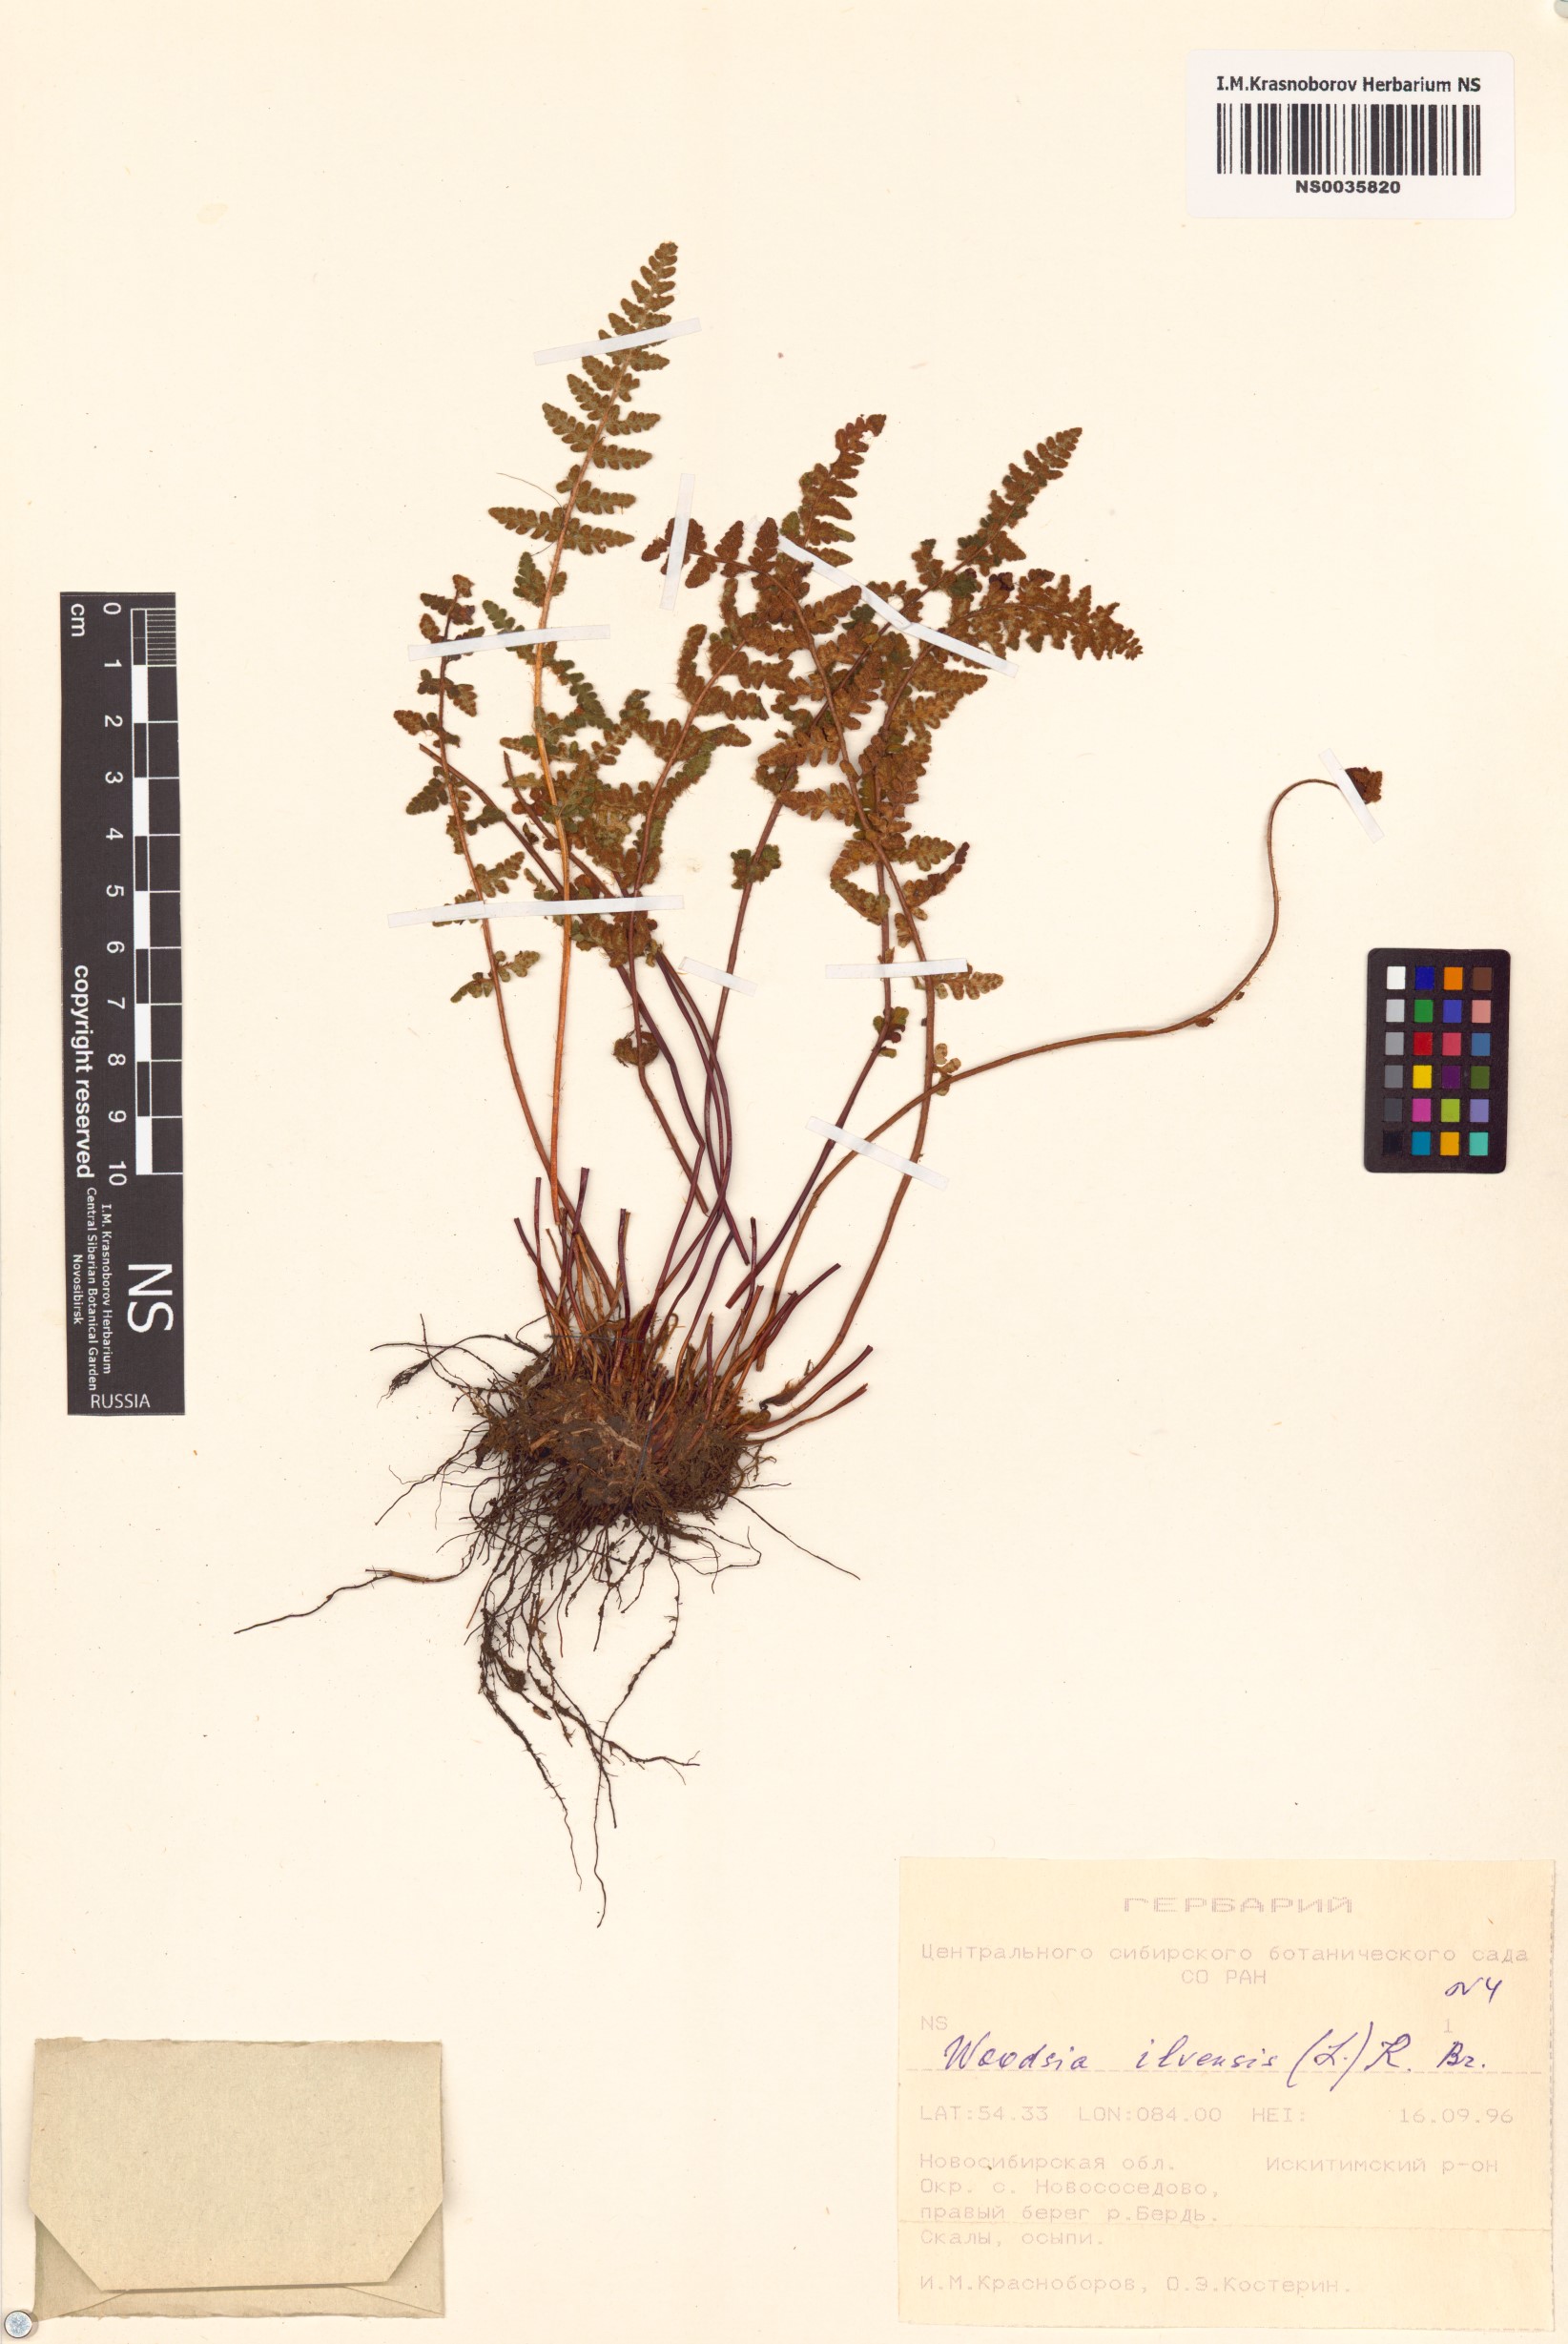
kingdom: Plantae
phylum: Tracheophyta
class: Polypodiopsida
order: Polypodiales
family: Woodsiaceae
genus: Woodsia
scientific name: Woodsia ilvensis
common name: Fragrant woodsia
